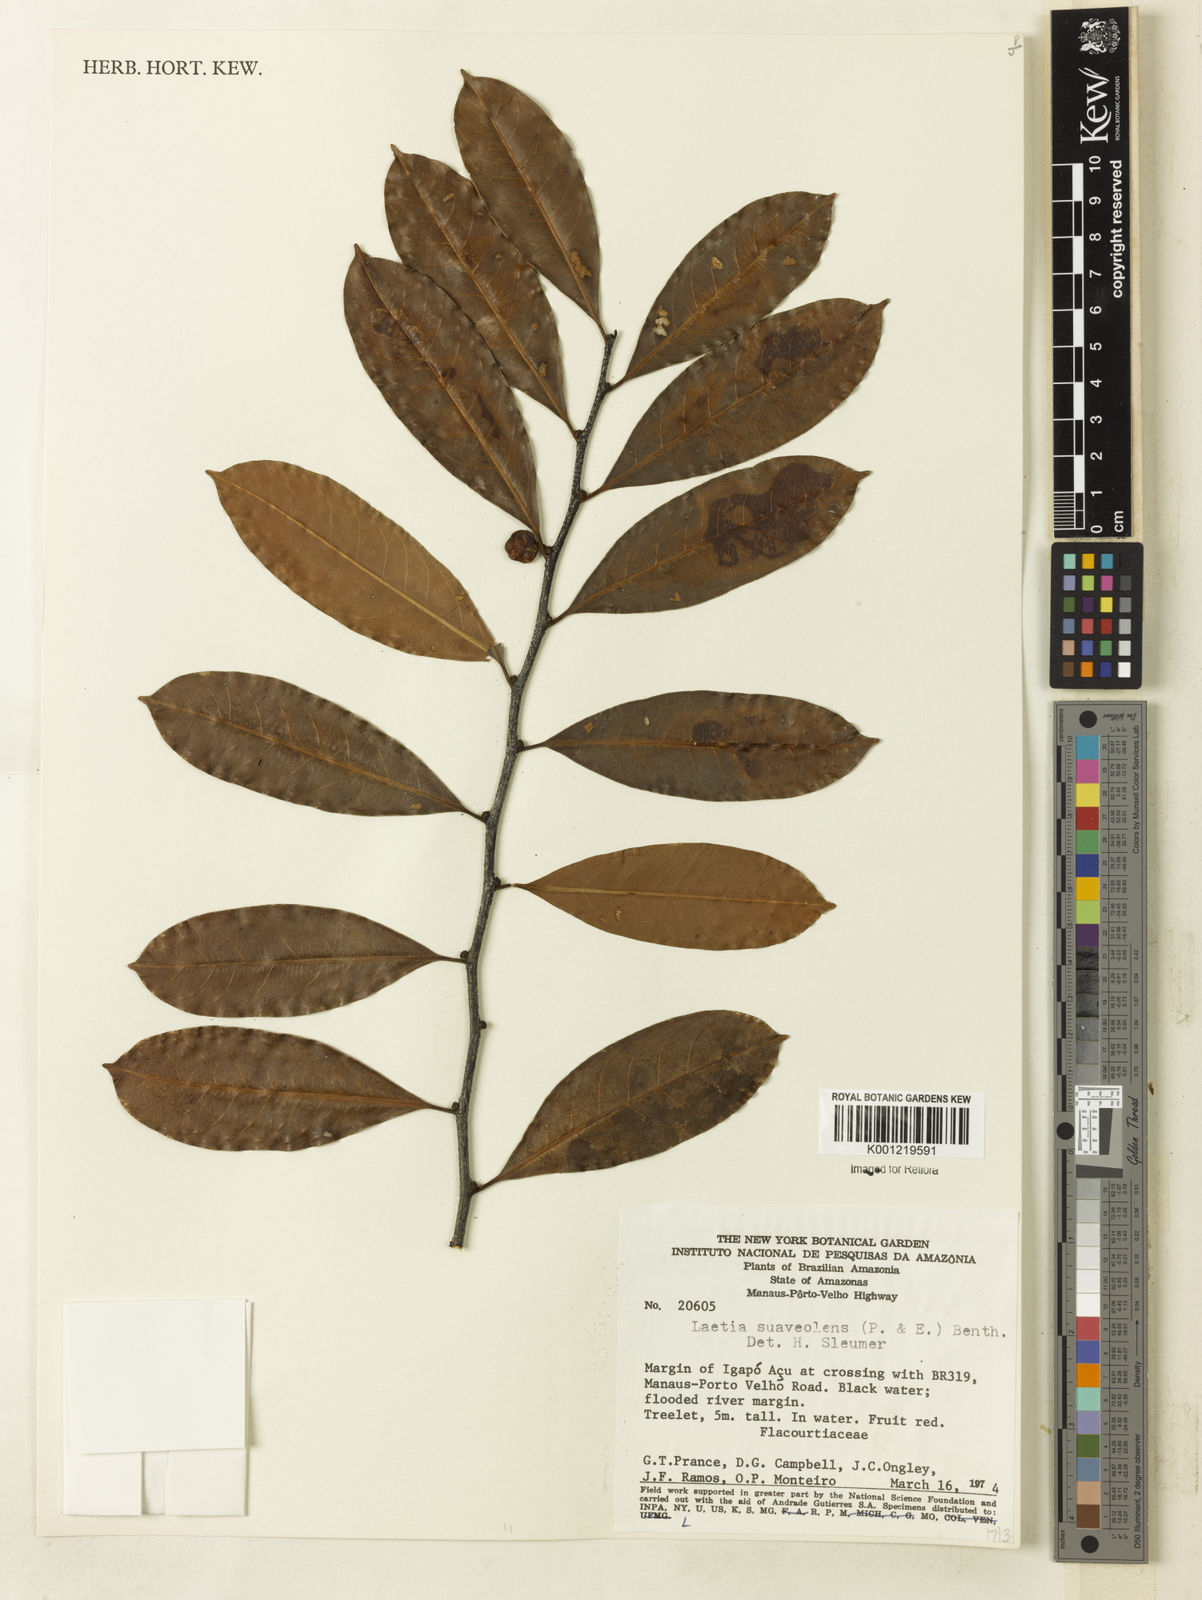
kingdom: Plantae
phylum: Tracheophyta
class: Magnoliopsida
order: Malpighiales
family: Salicaceae
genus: Casearia
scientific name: Casearia suaveolens
